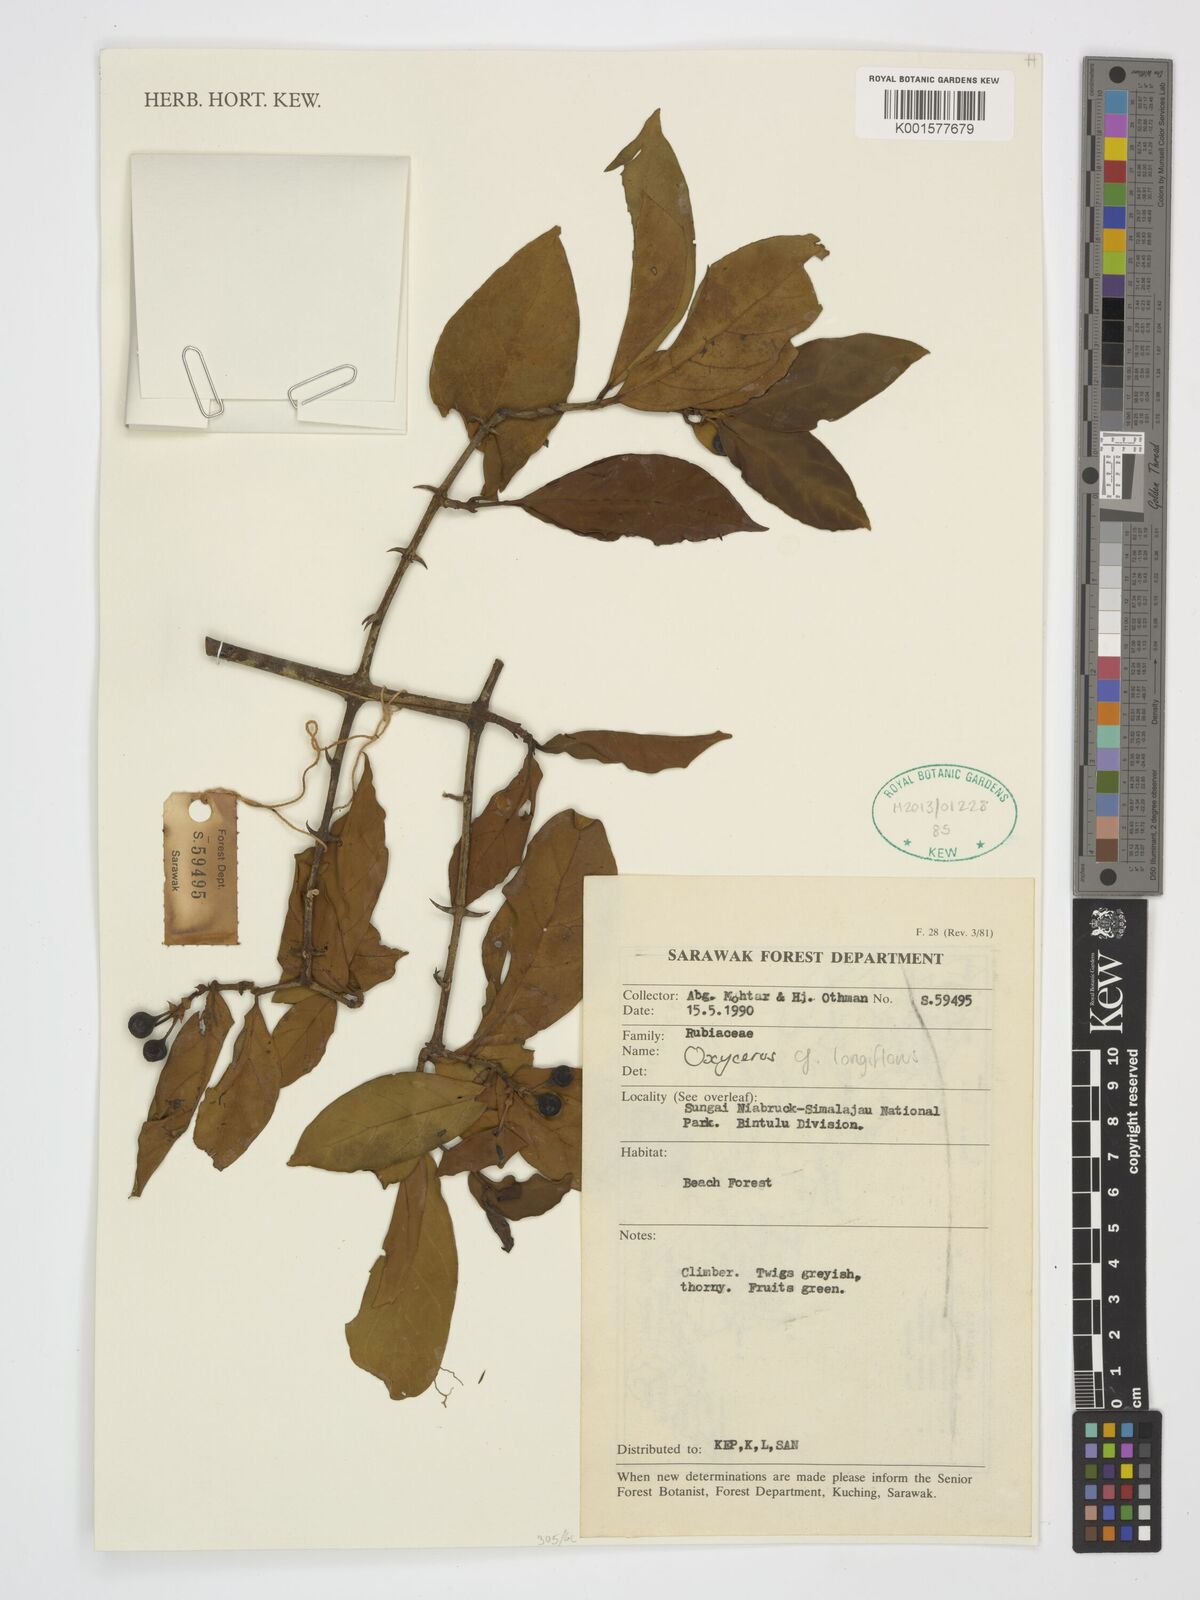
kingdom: Plantae
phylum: Tracheophyta
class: Magnoliopsida
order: Gentianales
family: Rubiaceae
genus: Oxyceros
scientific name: Oxyceros longiflorus
